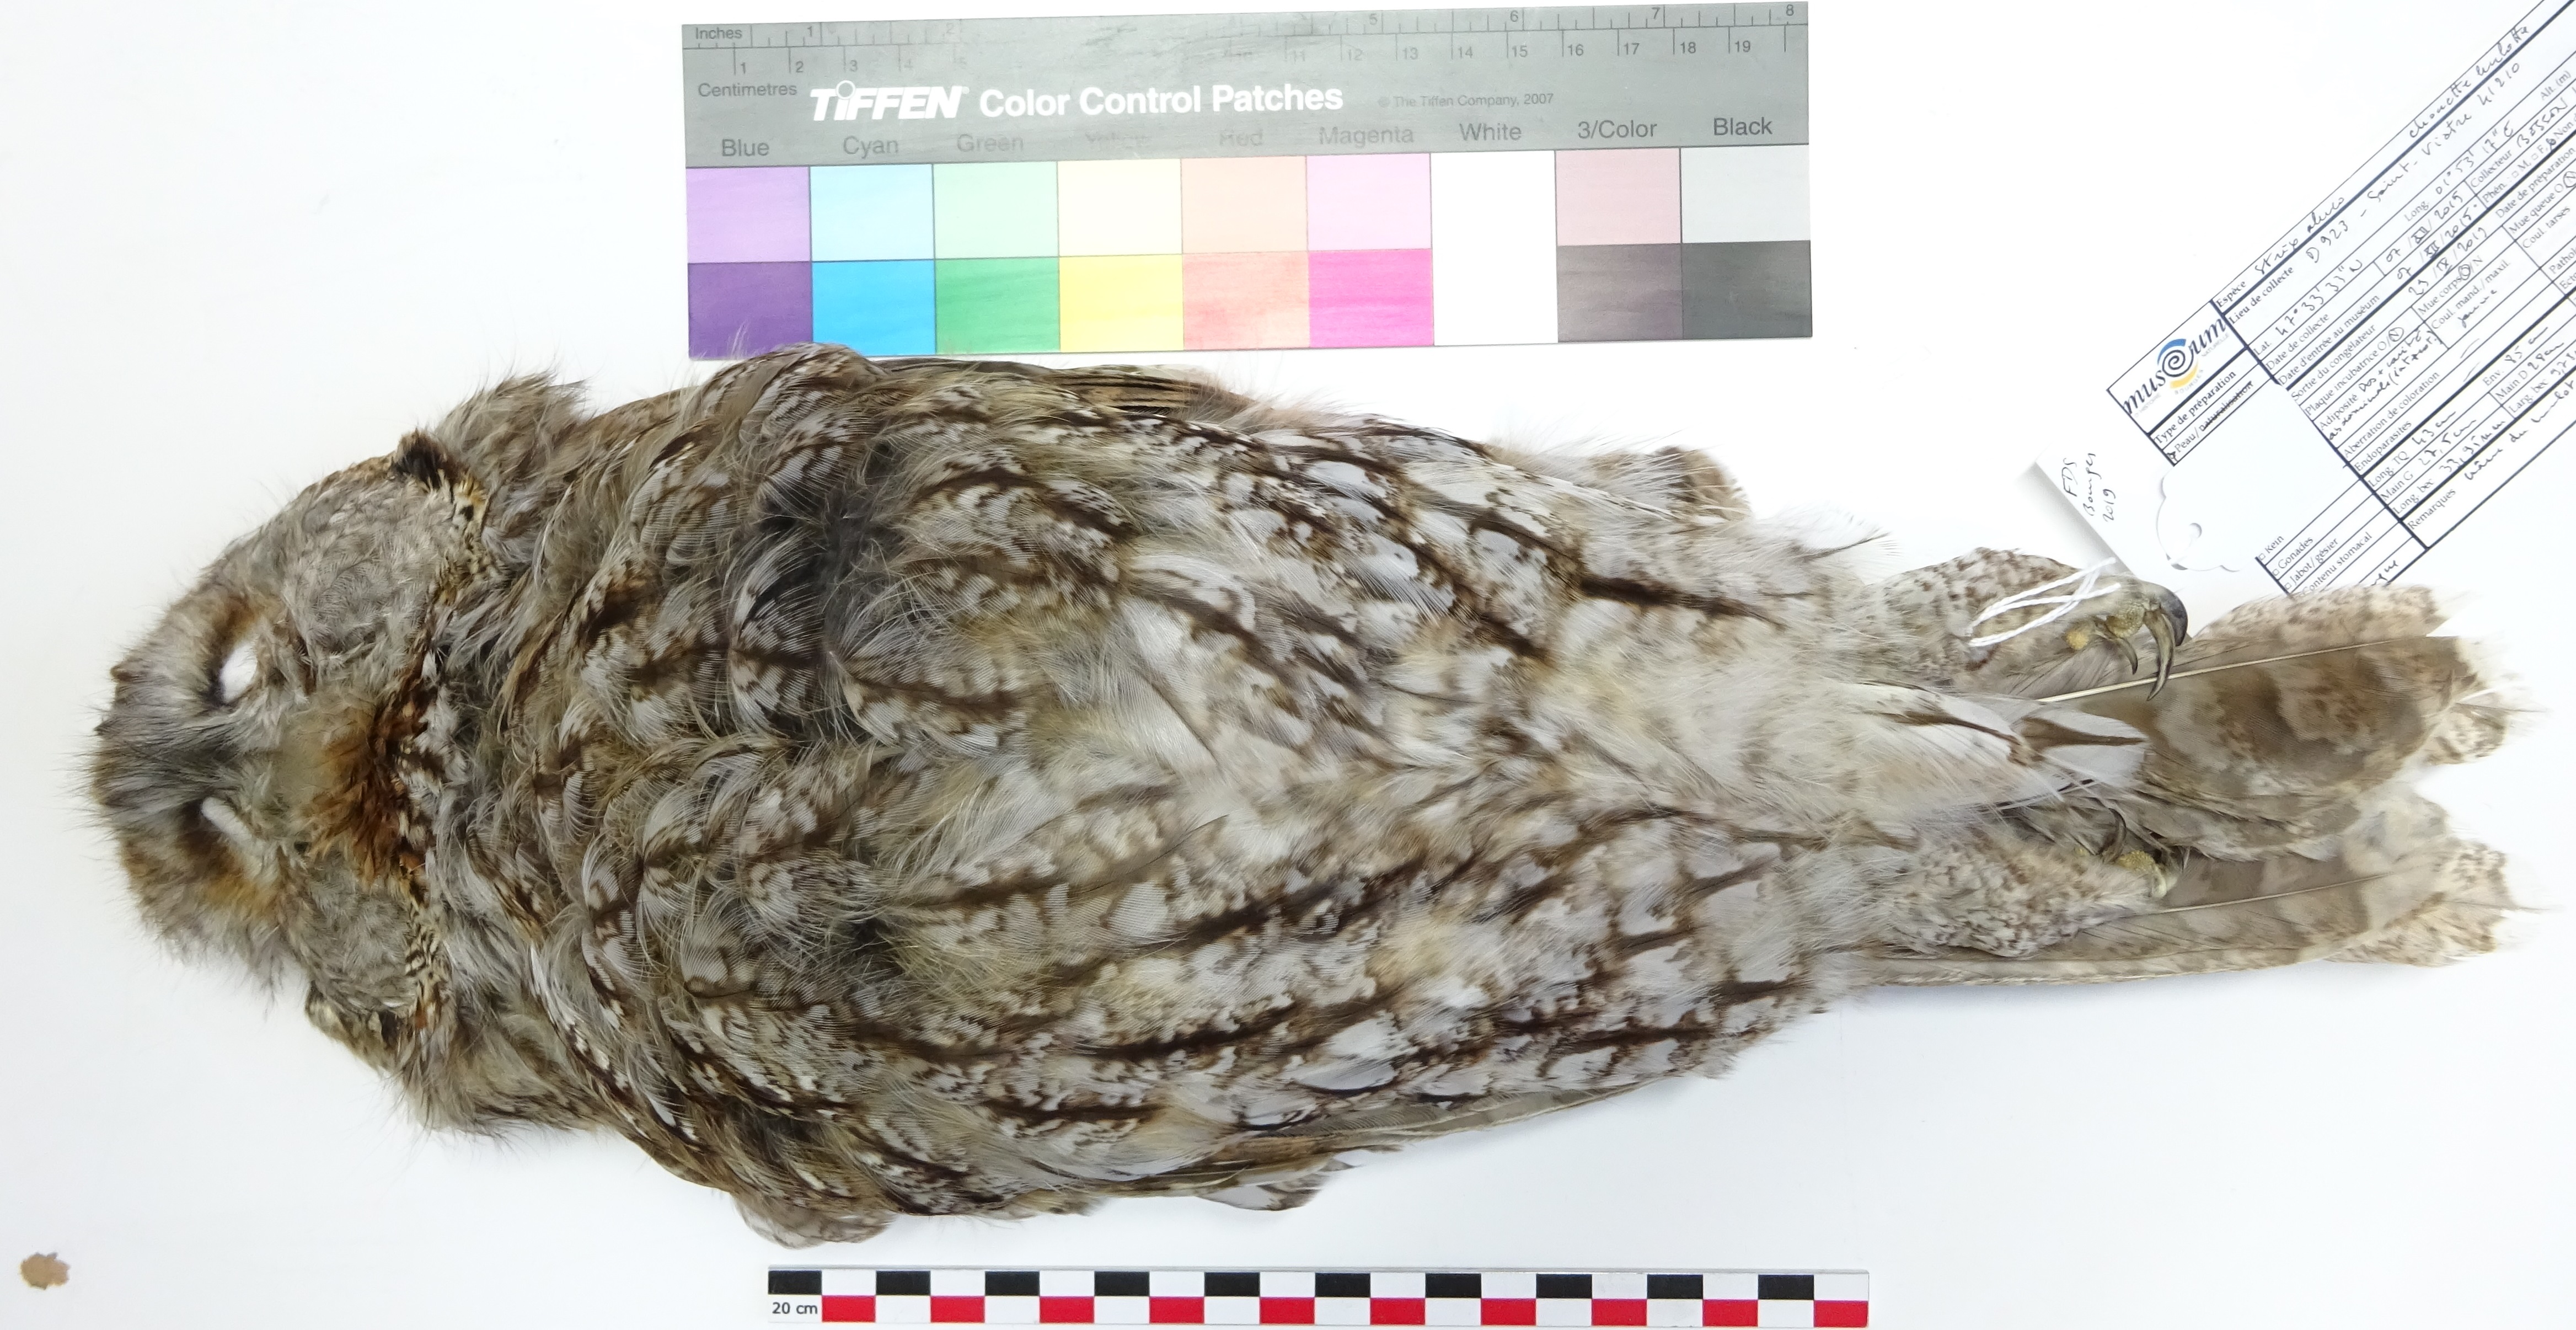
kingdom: Animalia
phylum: Chordata
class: Aves
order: Strigiformes
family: Strigidae
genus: Strix
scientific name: Strix aluco
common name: Tawny owl
